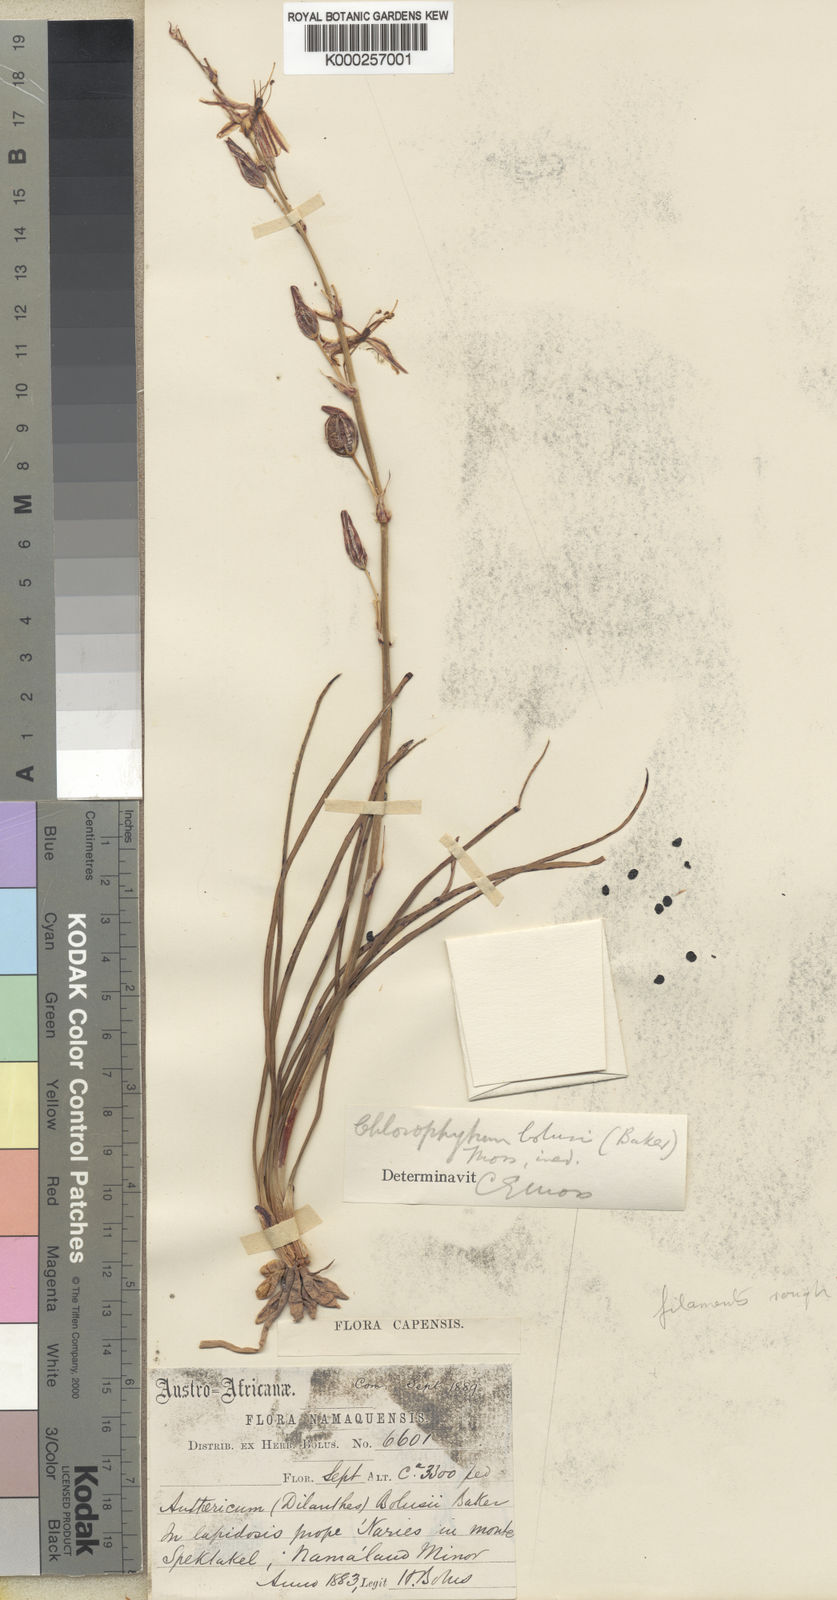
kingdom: Plantae
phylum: Tracheophyta
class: Liliopsida
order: Asparagales
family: Asparagaceae
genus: Chlorophytum
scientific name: Chlorophytum graminifolium
